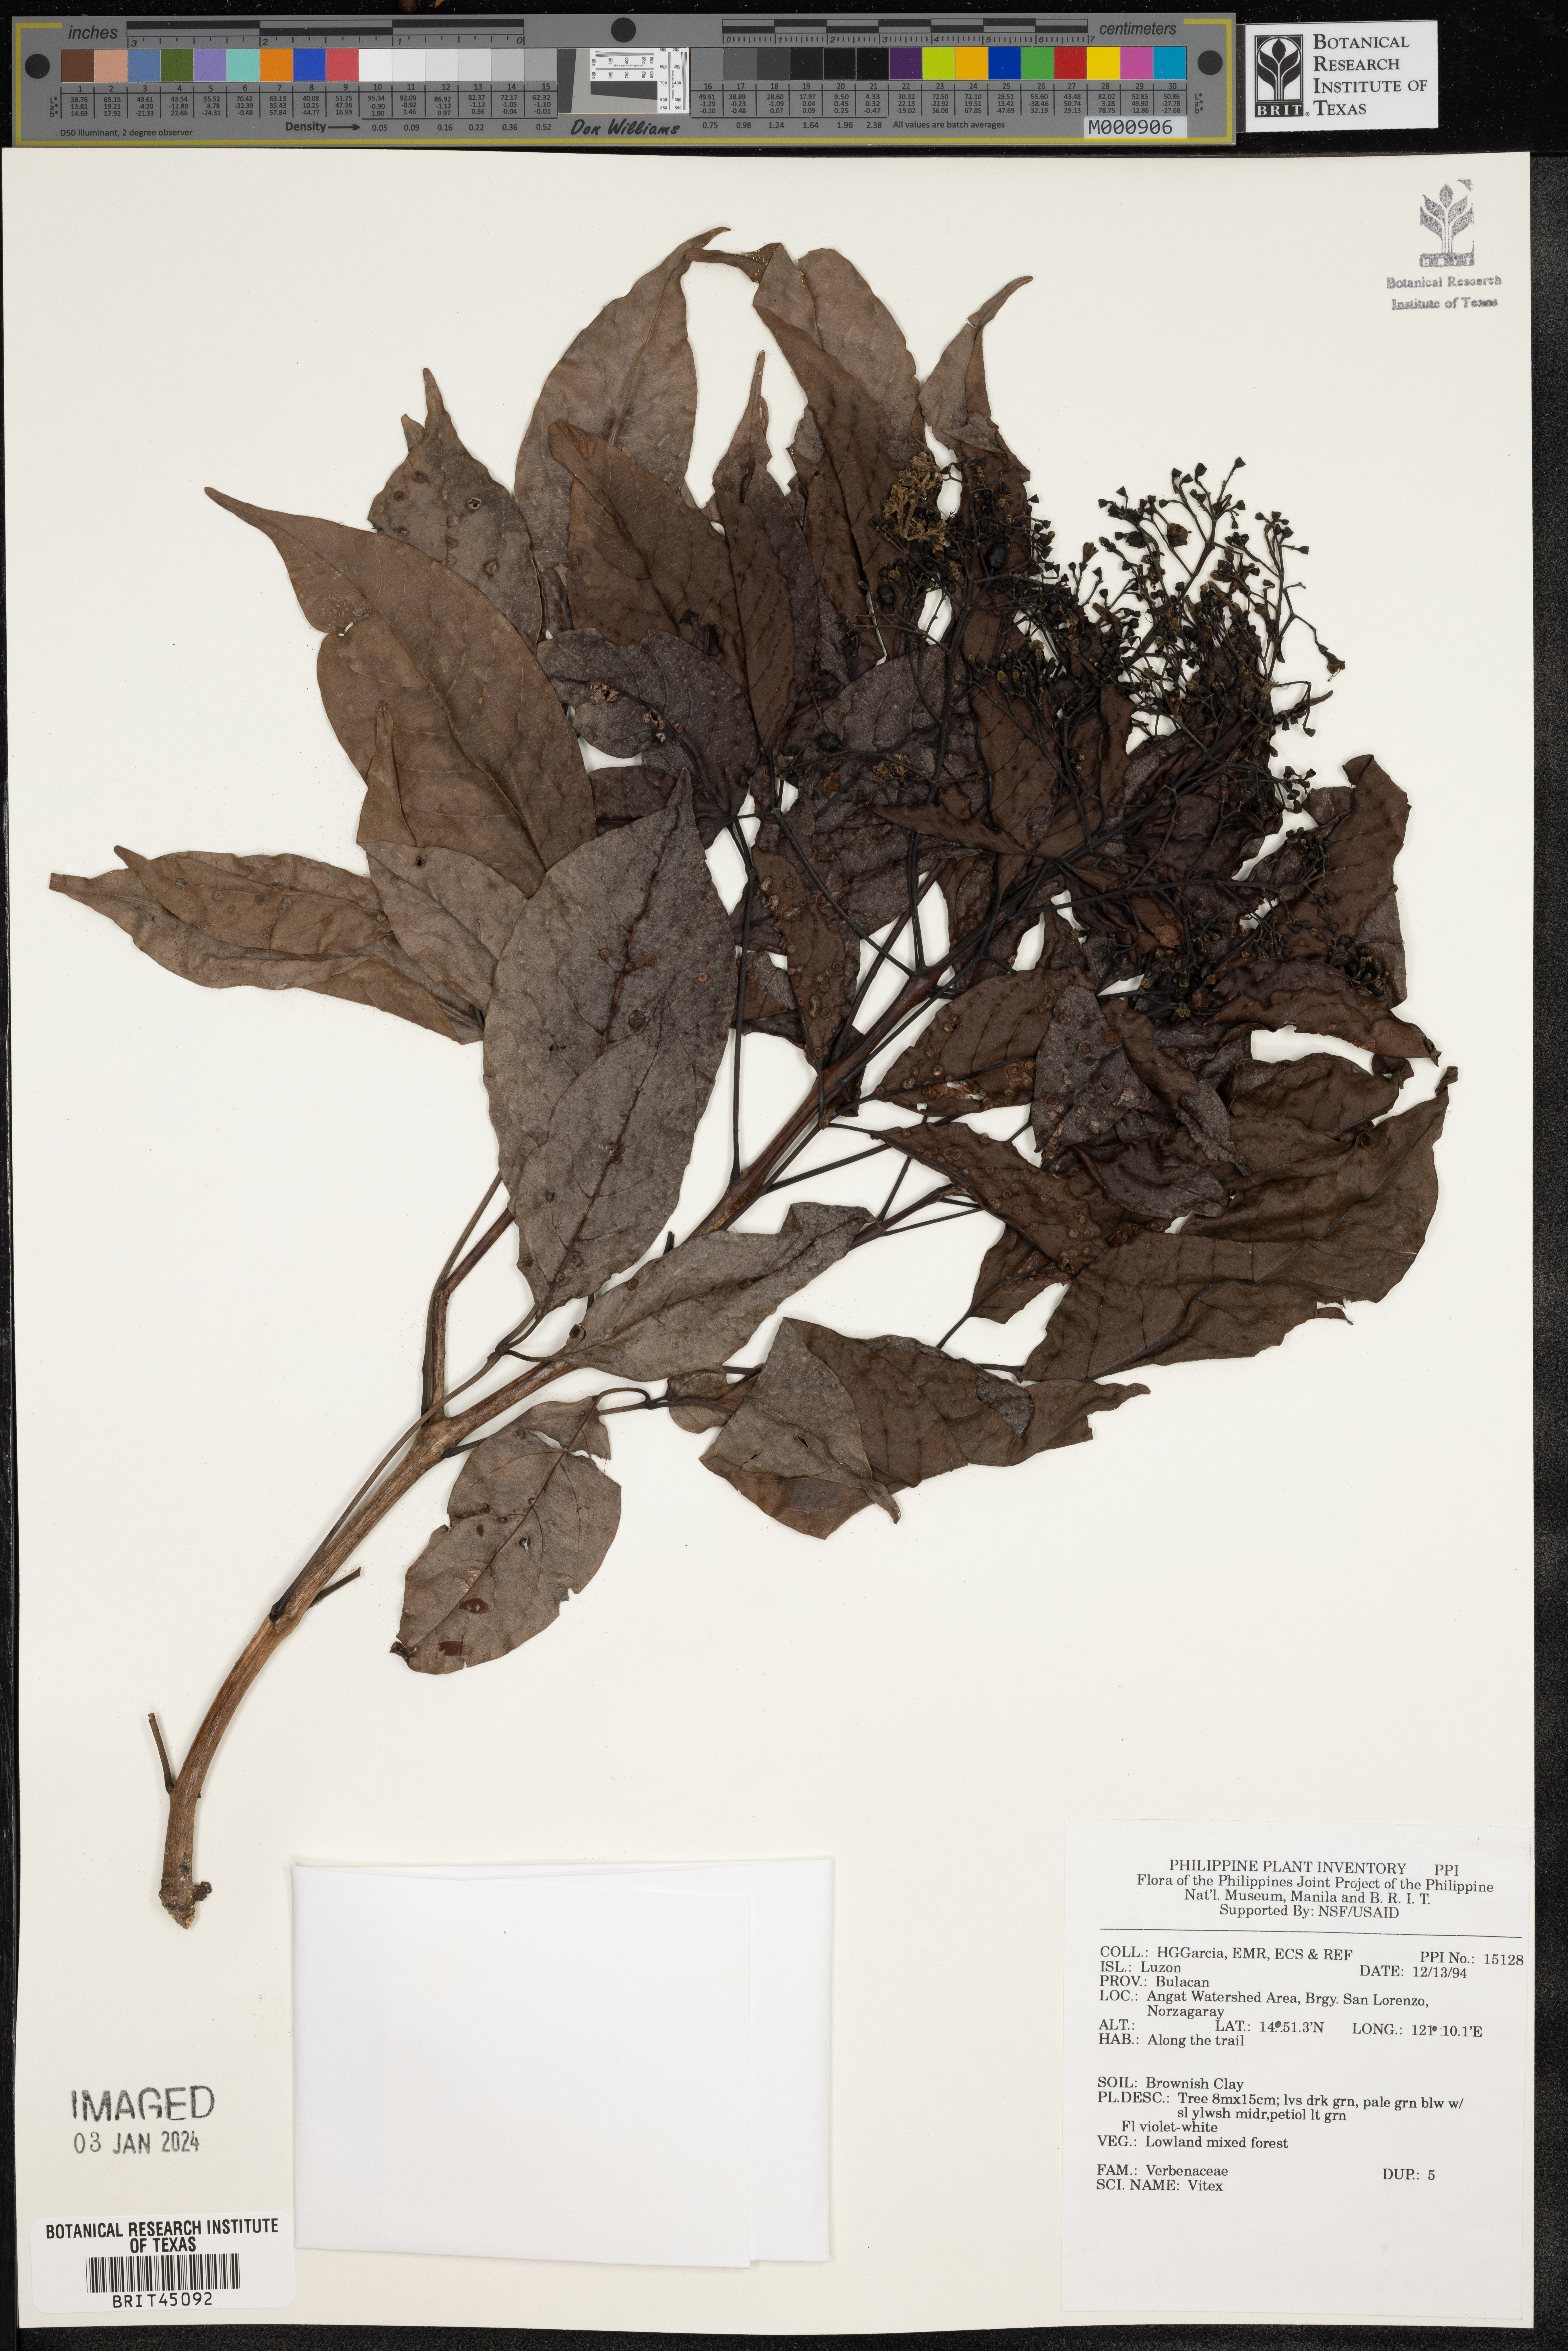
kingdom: Plantae
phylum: Tracheophyta
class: Magnoliopsida
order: Lamiales
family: Lamiaceae
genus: Vitex
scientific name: Vitex
